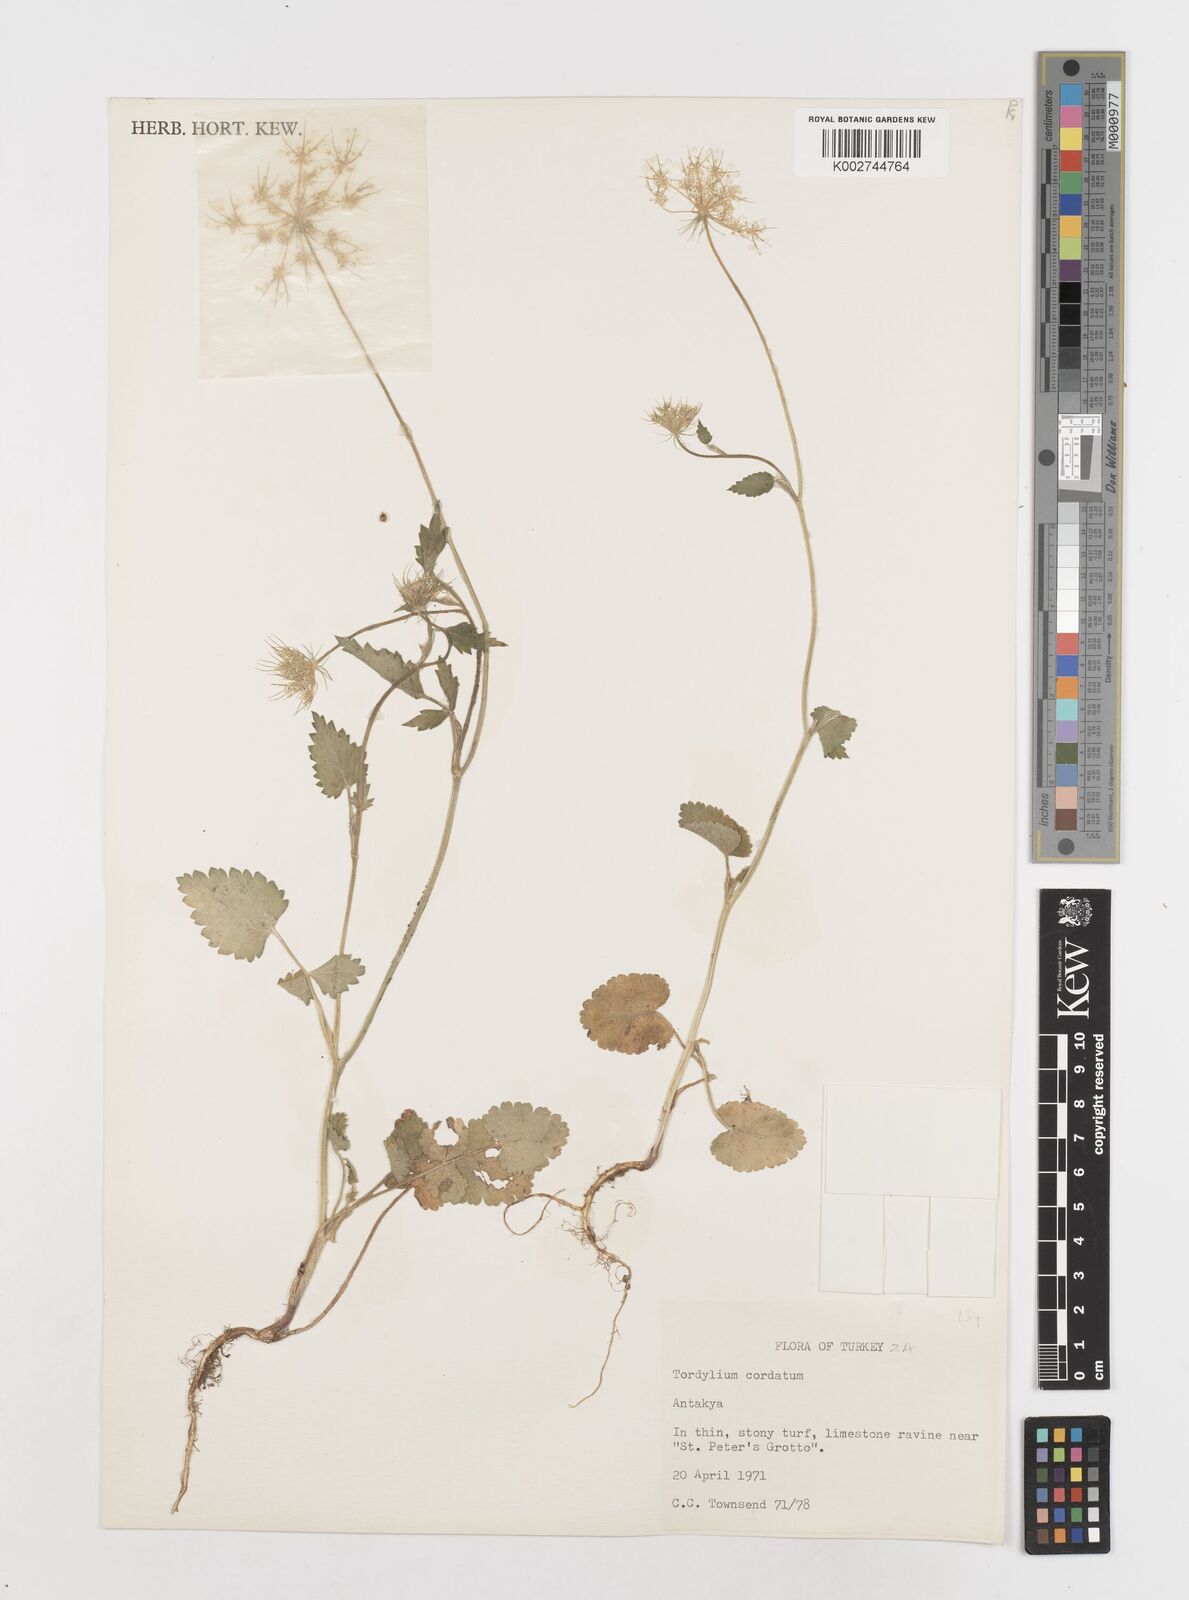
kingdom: Plantae
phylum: Tracheophyta
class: Magnoliopsida
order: Apiales
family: Apiaceae
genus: Ainsworthia
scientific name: Ainsworthia cordata
